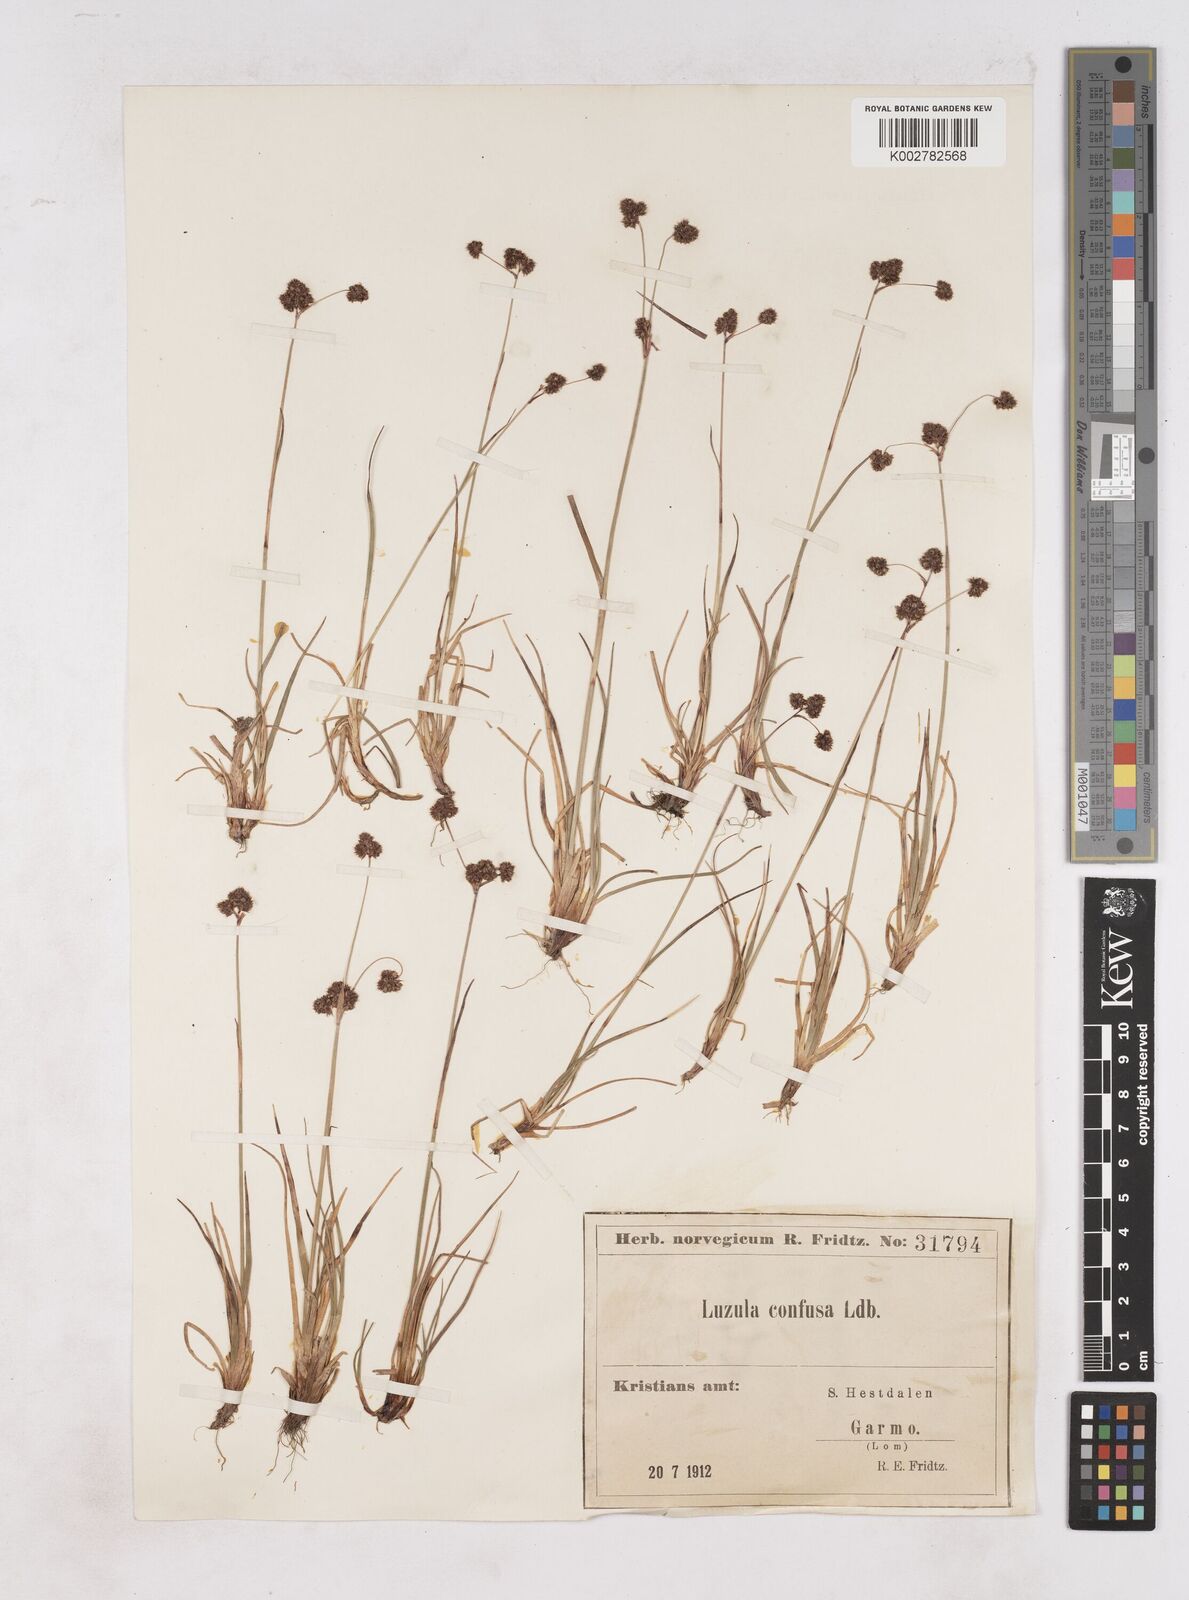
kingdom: Plantae
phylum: Tracheophyta
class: Liliopsida
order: Poales
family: Juncaceae
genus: Luzula
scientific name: Luzula confusa
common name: Northern wood rush
